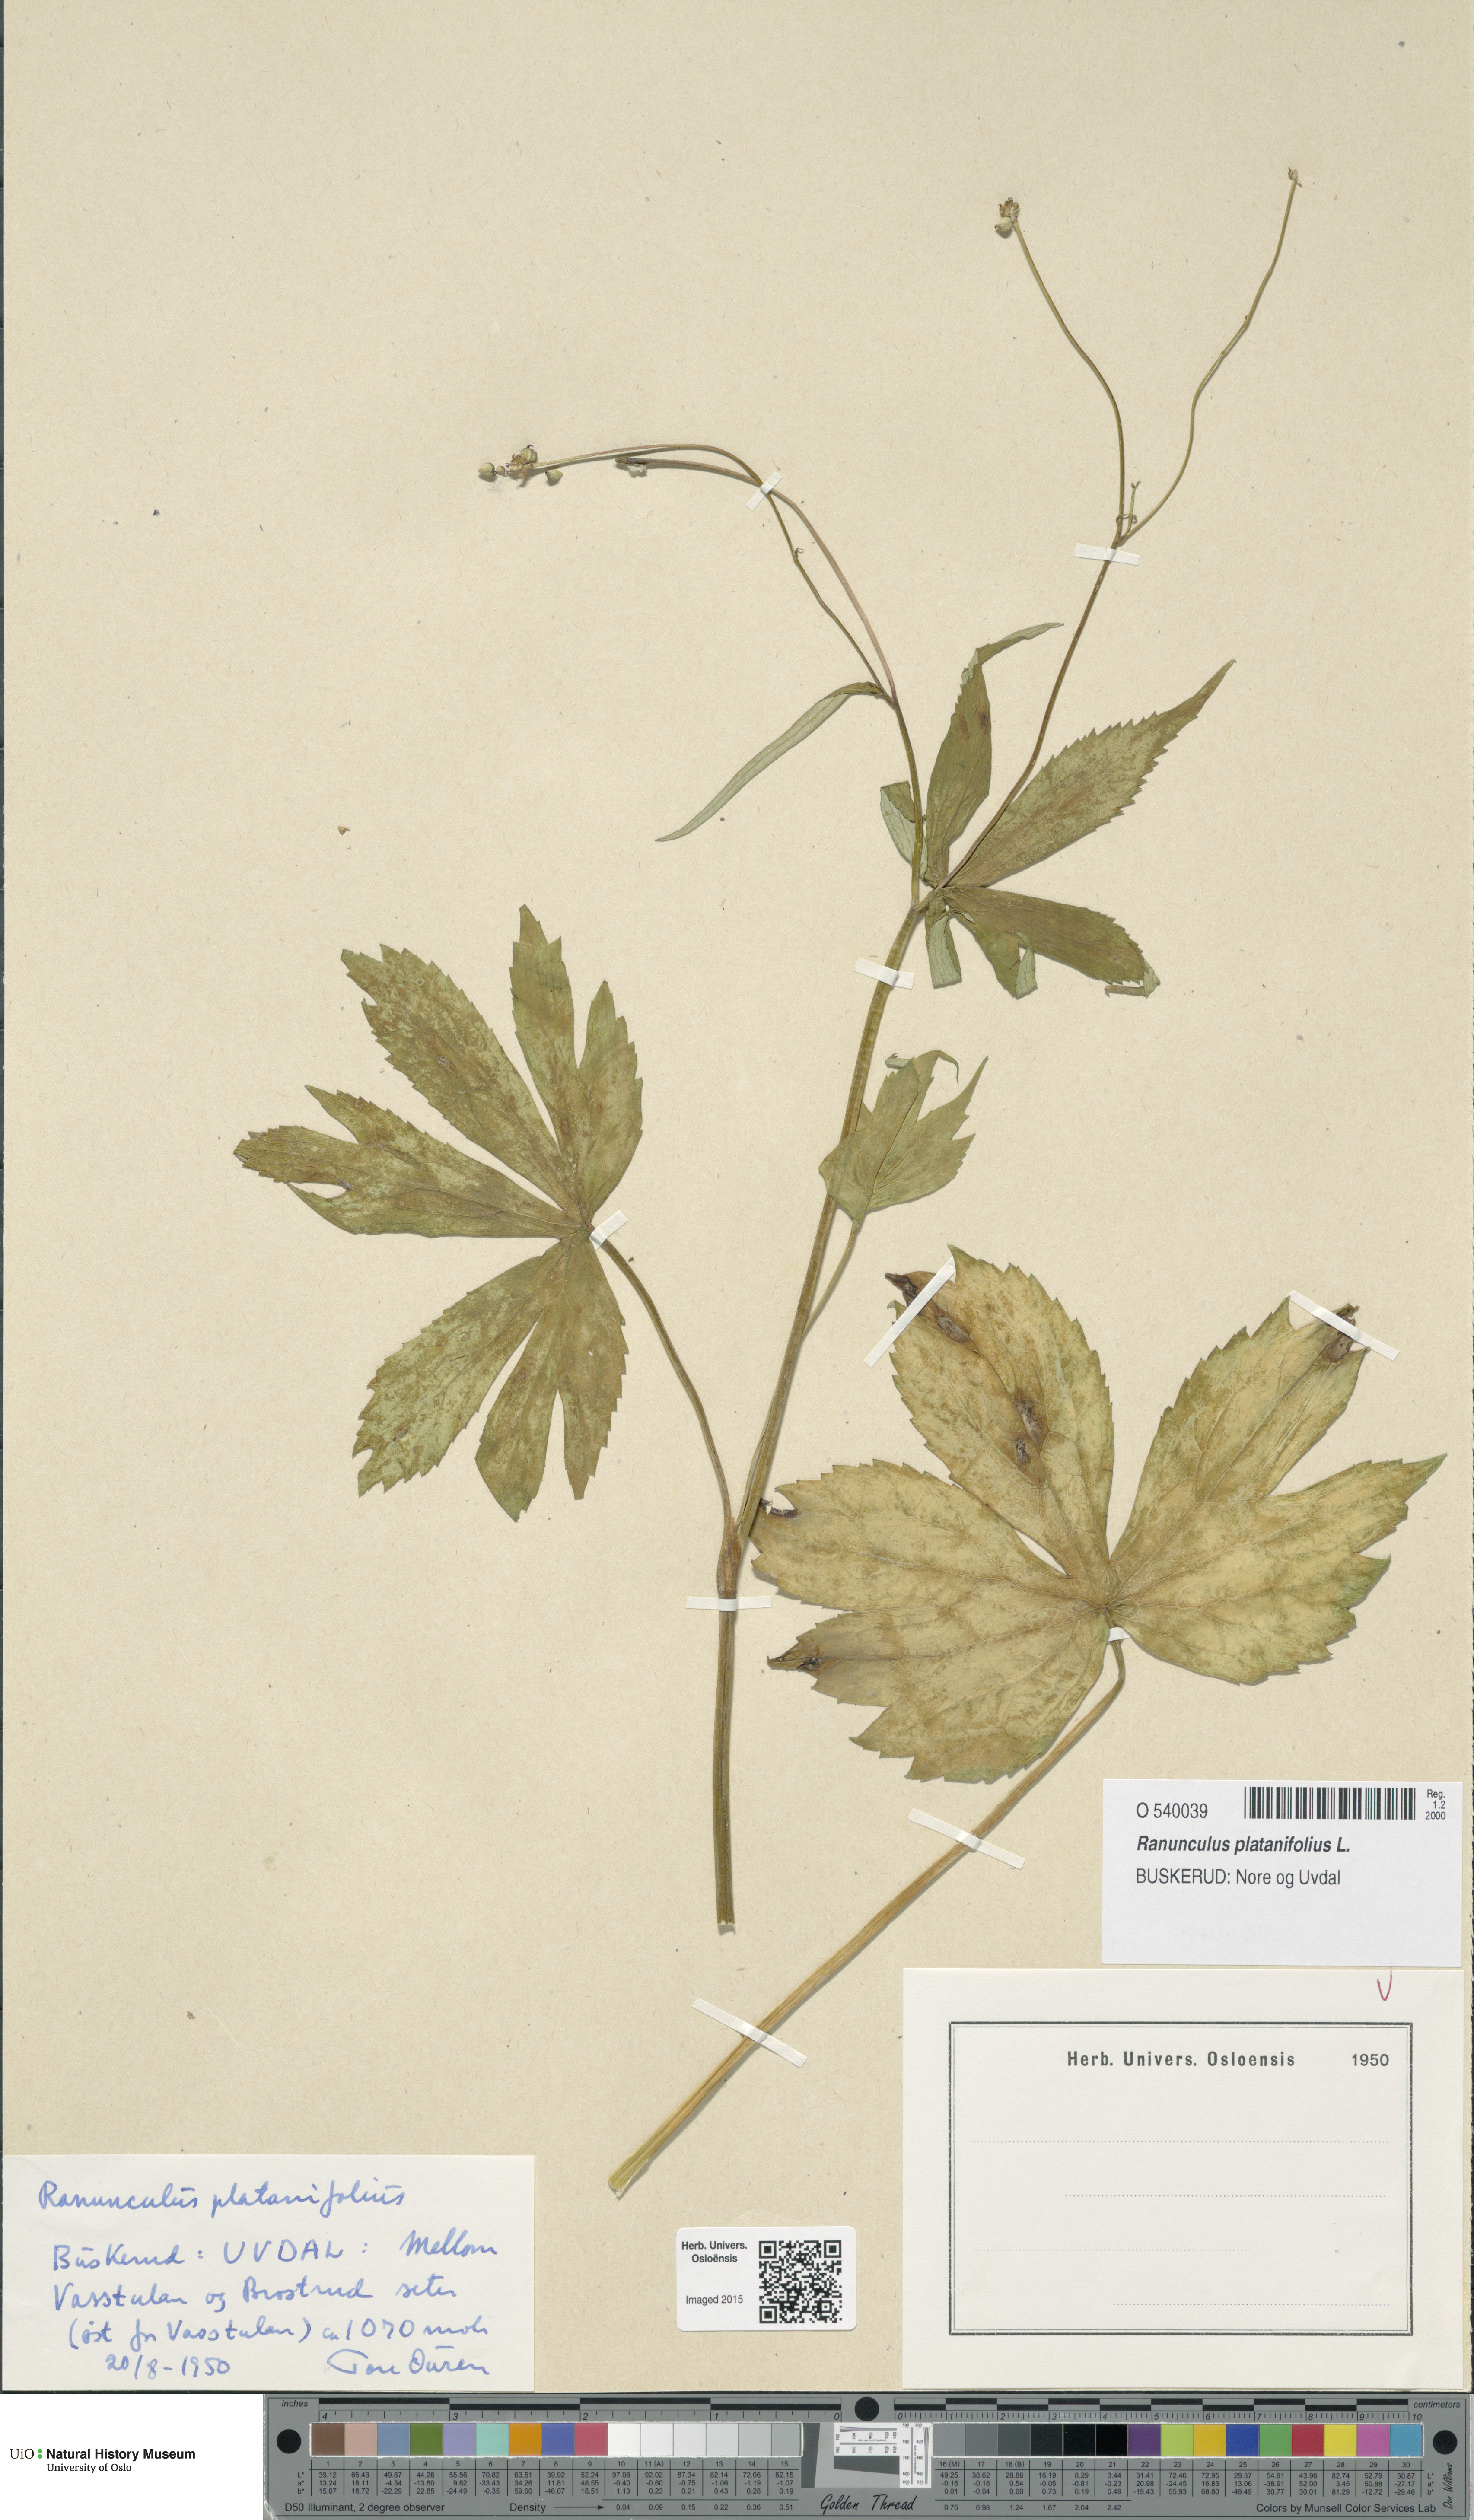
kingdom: Plantae
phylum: Tracheophyta
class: Magnoliopsida
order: Ranunculales
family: Ranunculaceae
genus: Ranunculus
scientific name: Ranunculus platanifolius
